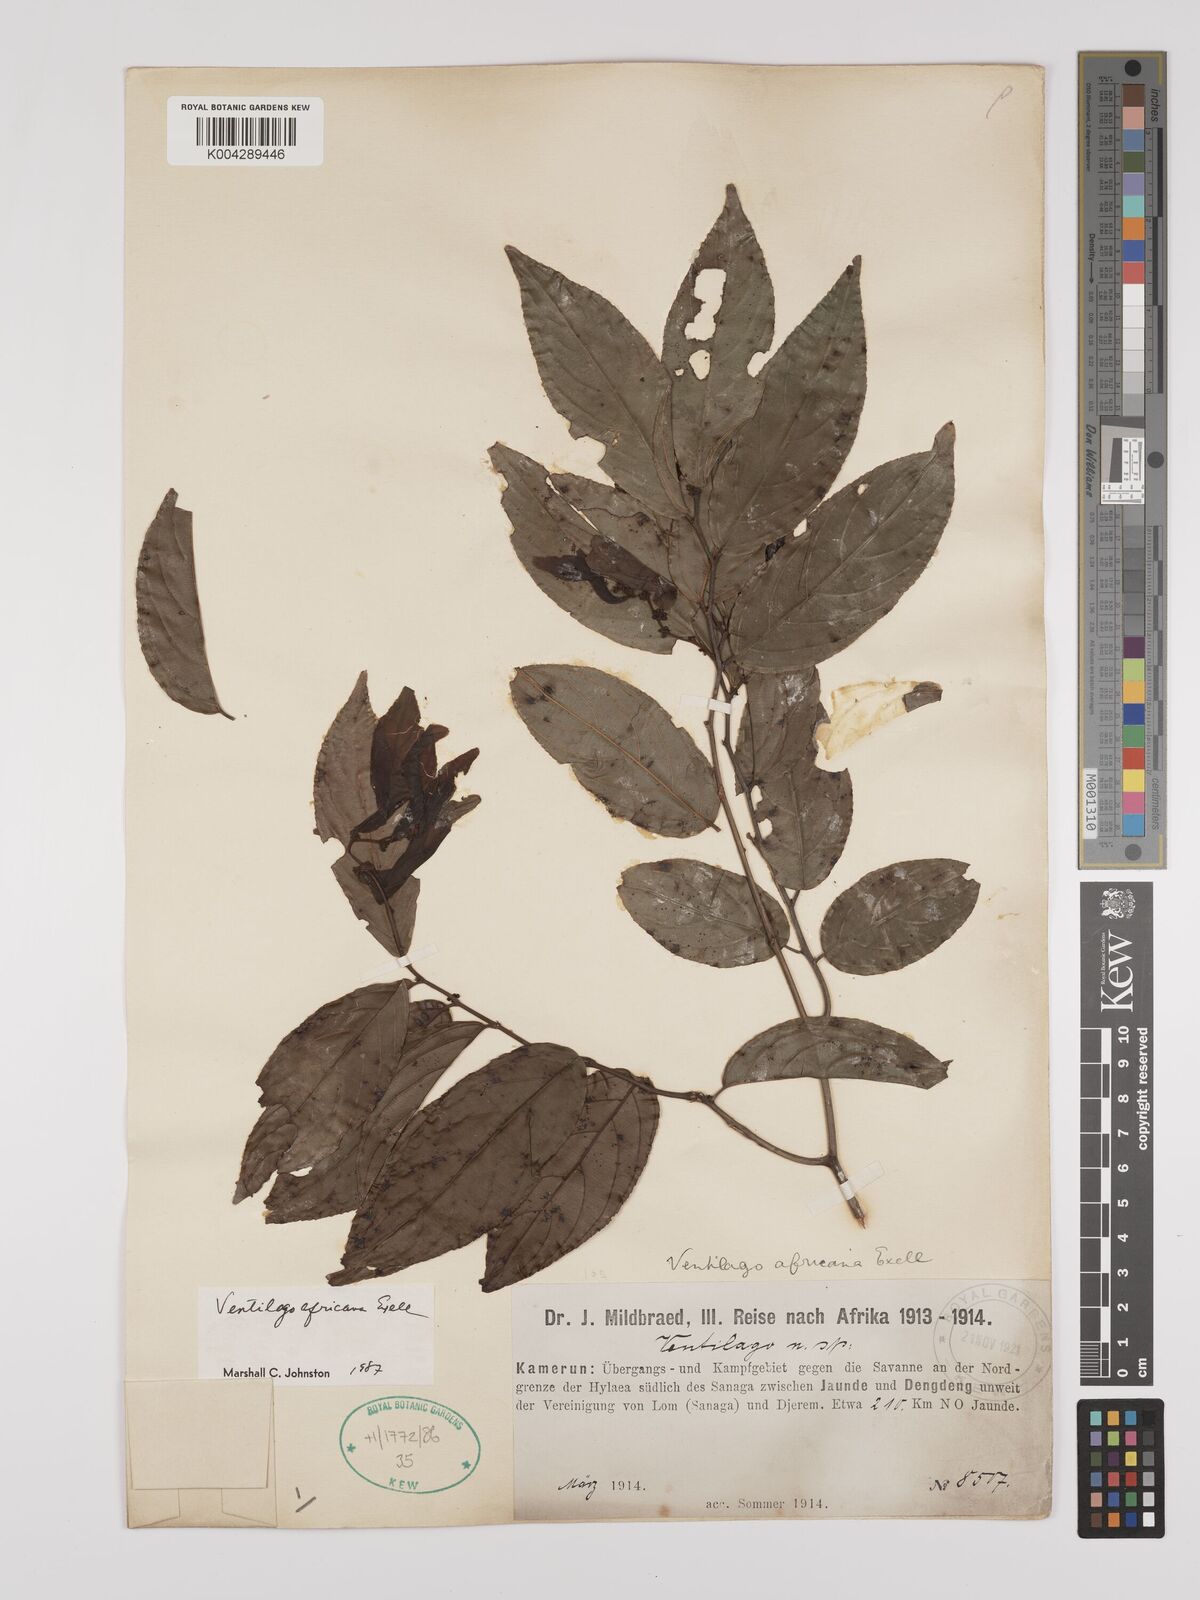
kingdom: Plantae
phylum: Tracheophyta
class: Magnoliopsida
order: Rosales
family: Rhamnaceae
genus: Ventilago
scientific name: Ventilago africana
